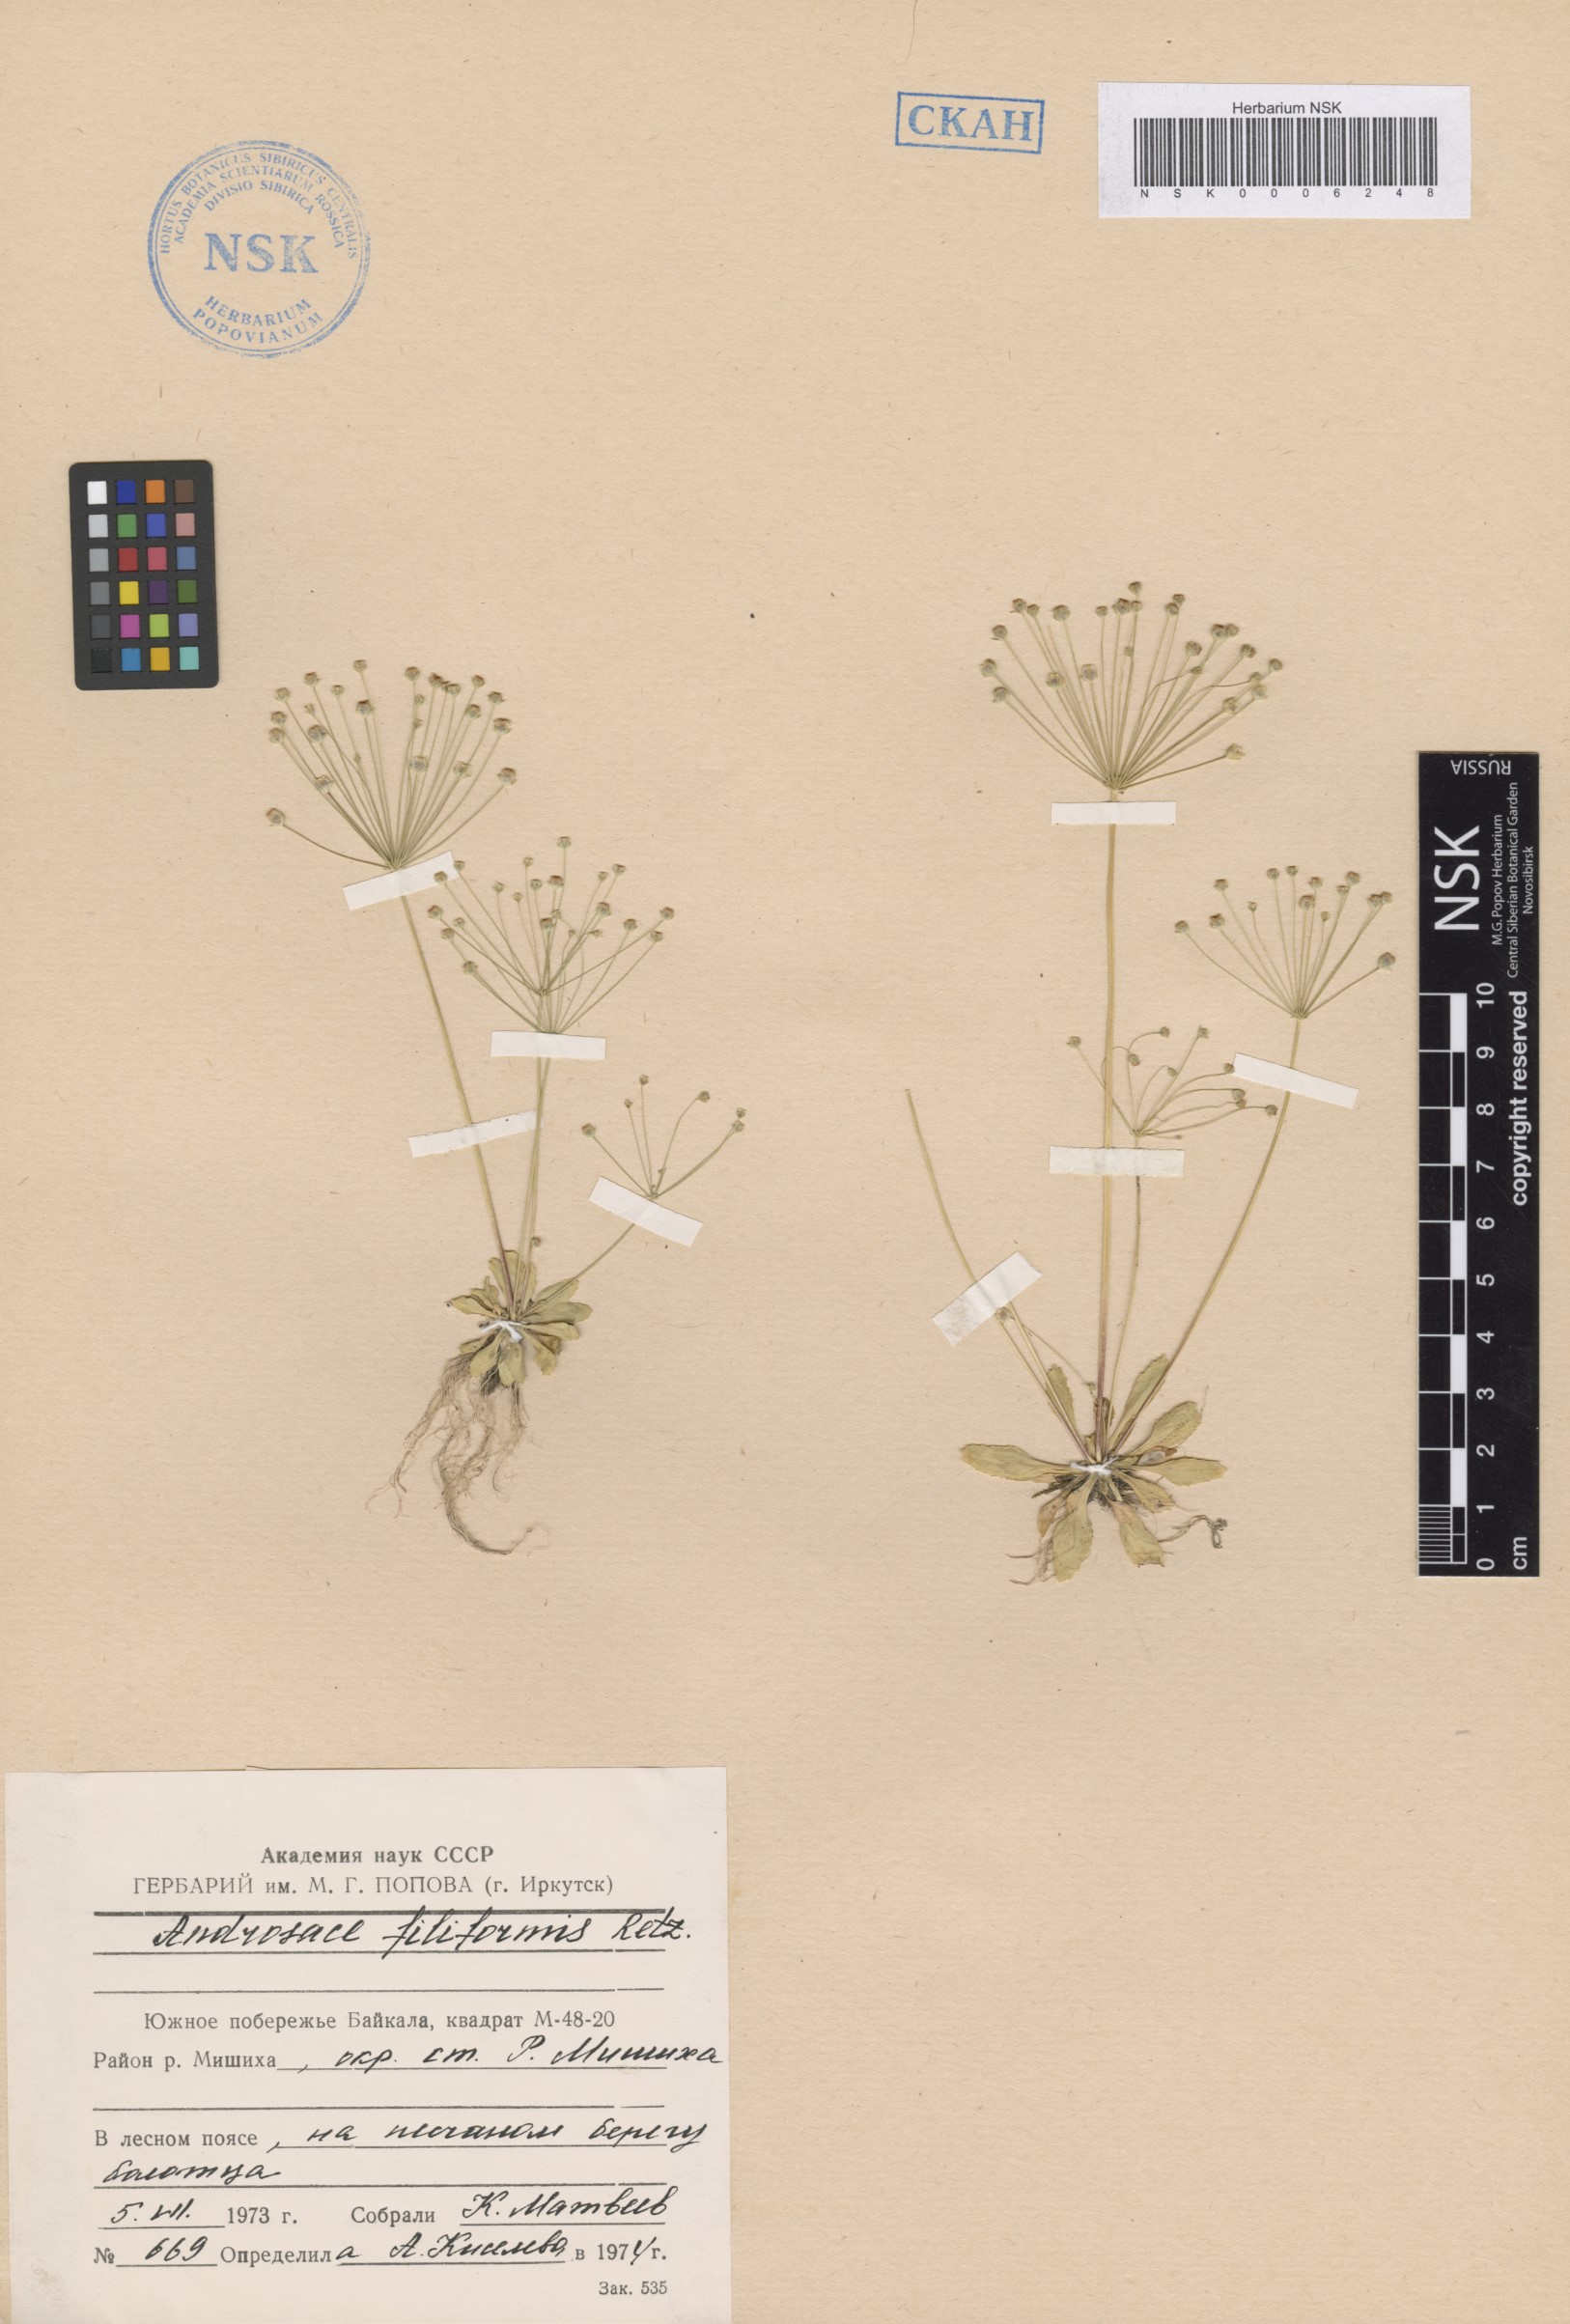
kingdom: Plantae
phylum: Tracheophyta
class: Magnoliopsida
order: Ericales
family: Primulaceae
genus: Androsace
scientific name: Androsace filiformis
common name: Filiform rock jasmine
